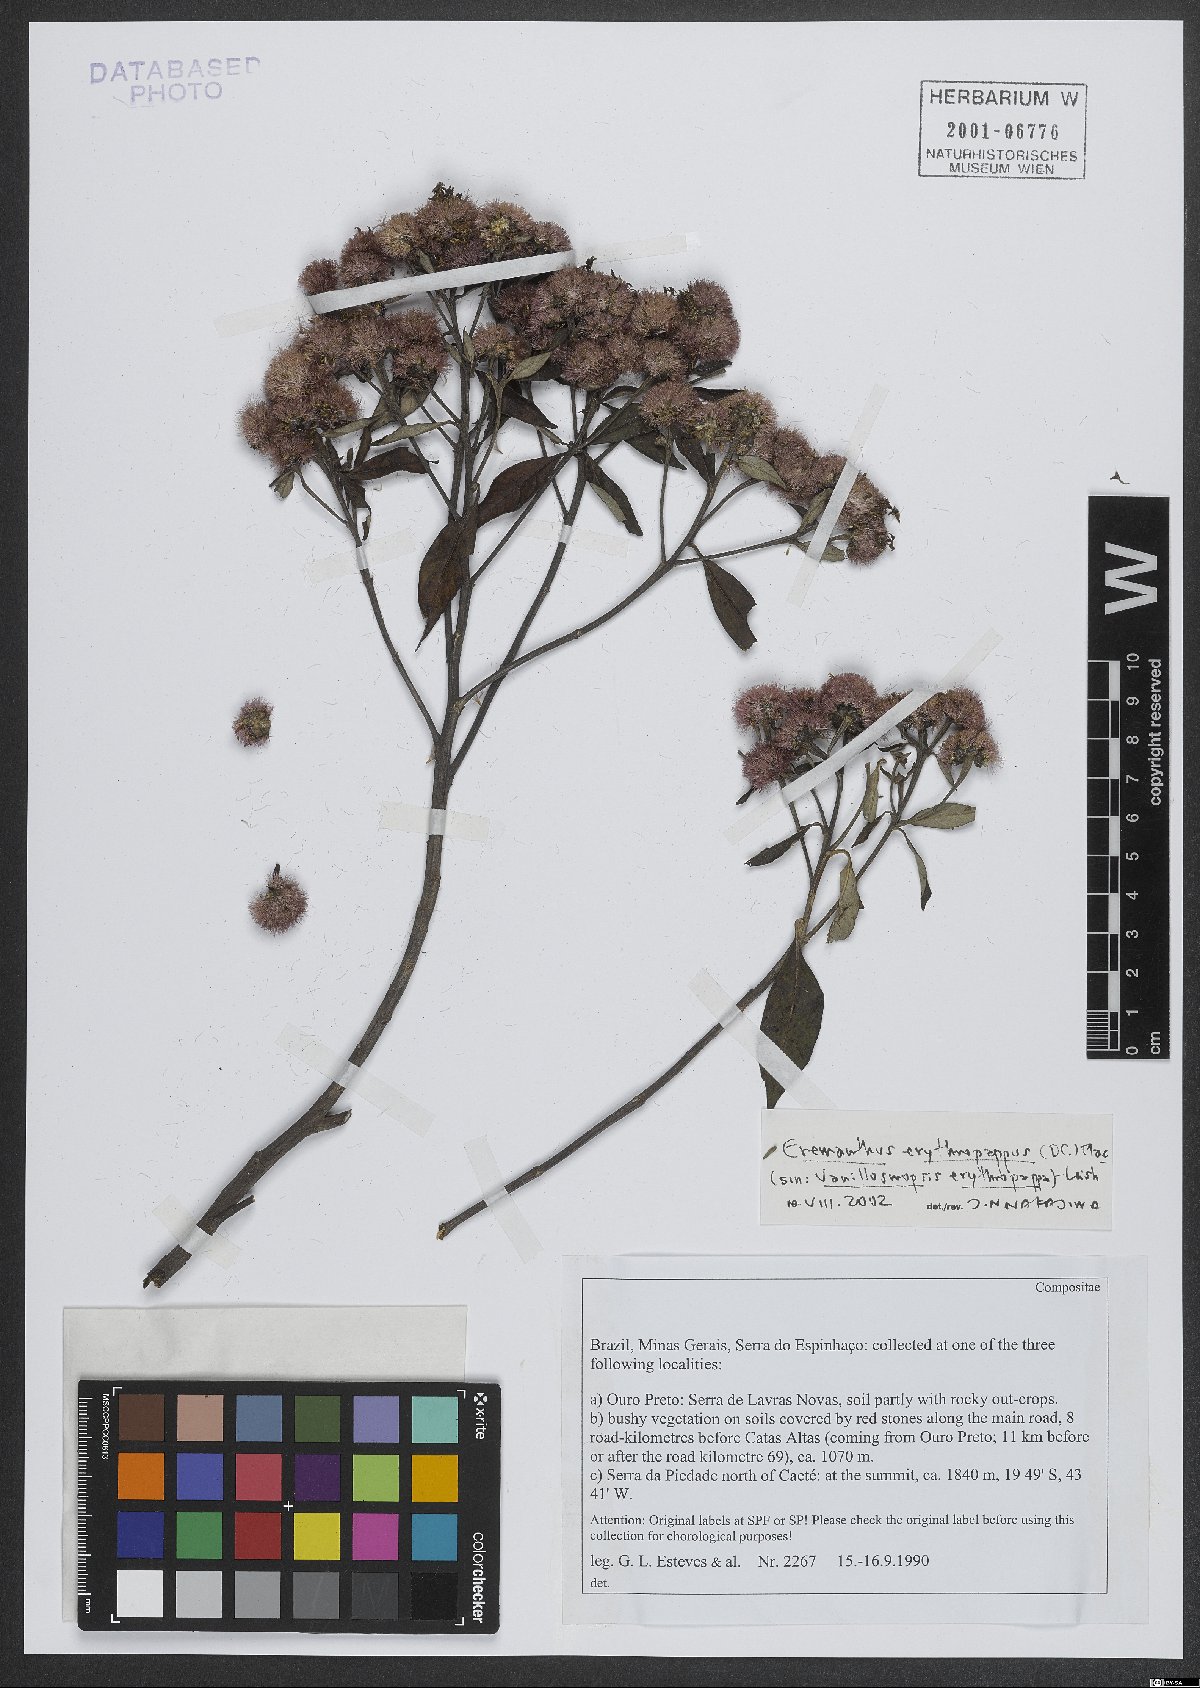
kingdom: Plantae
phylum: Tracheophyta
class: Magnoliopsida
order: Asterales
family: Asteraceae
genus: Eremanthus
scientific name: Eremanthus erythropappus
